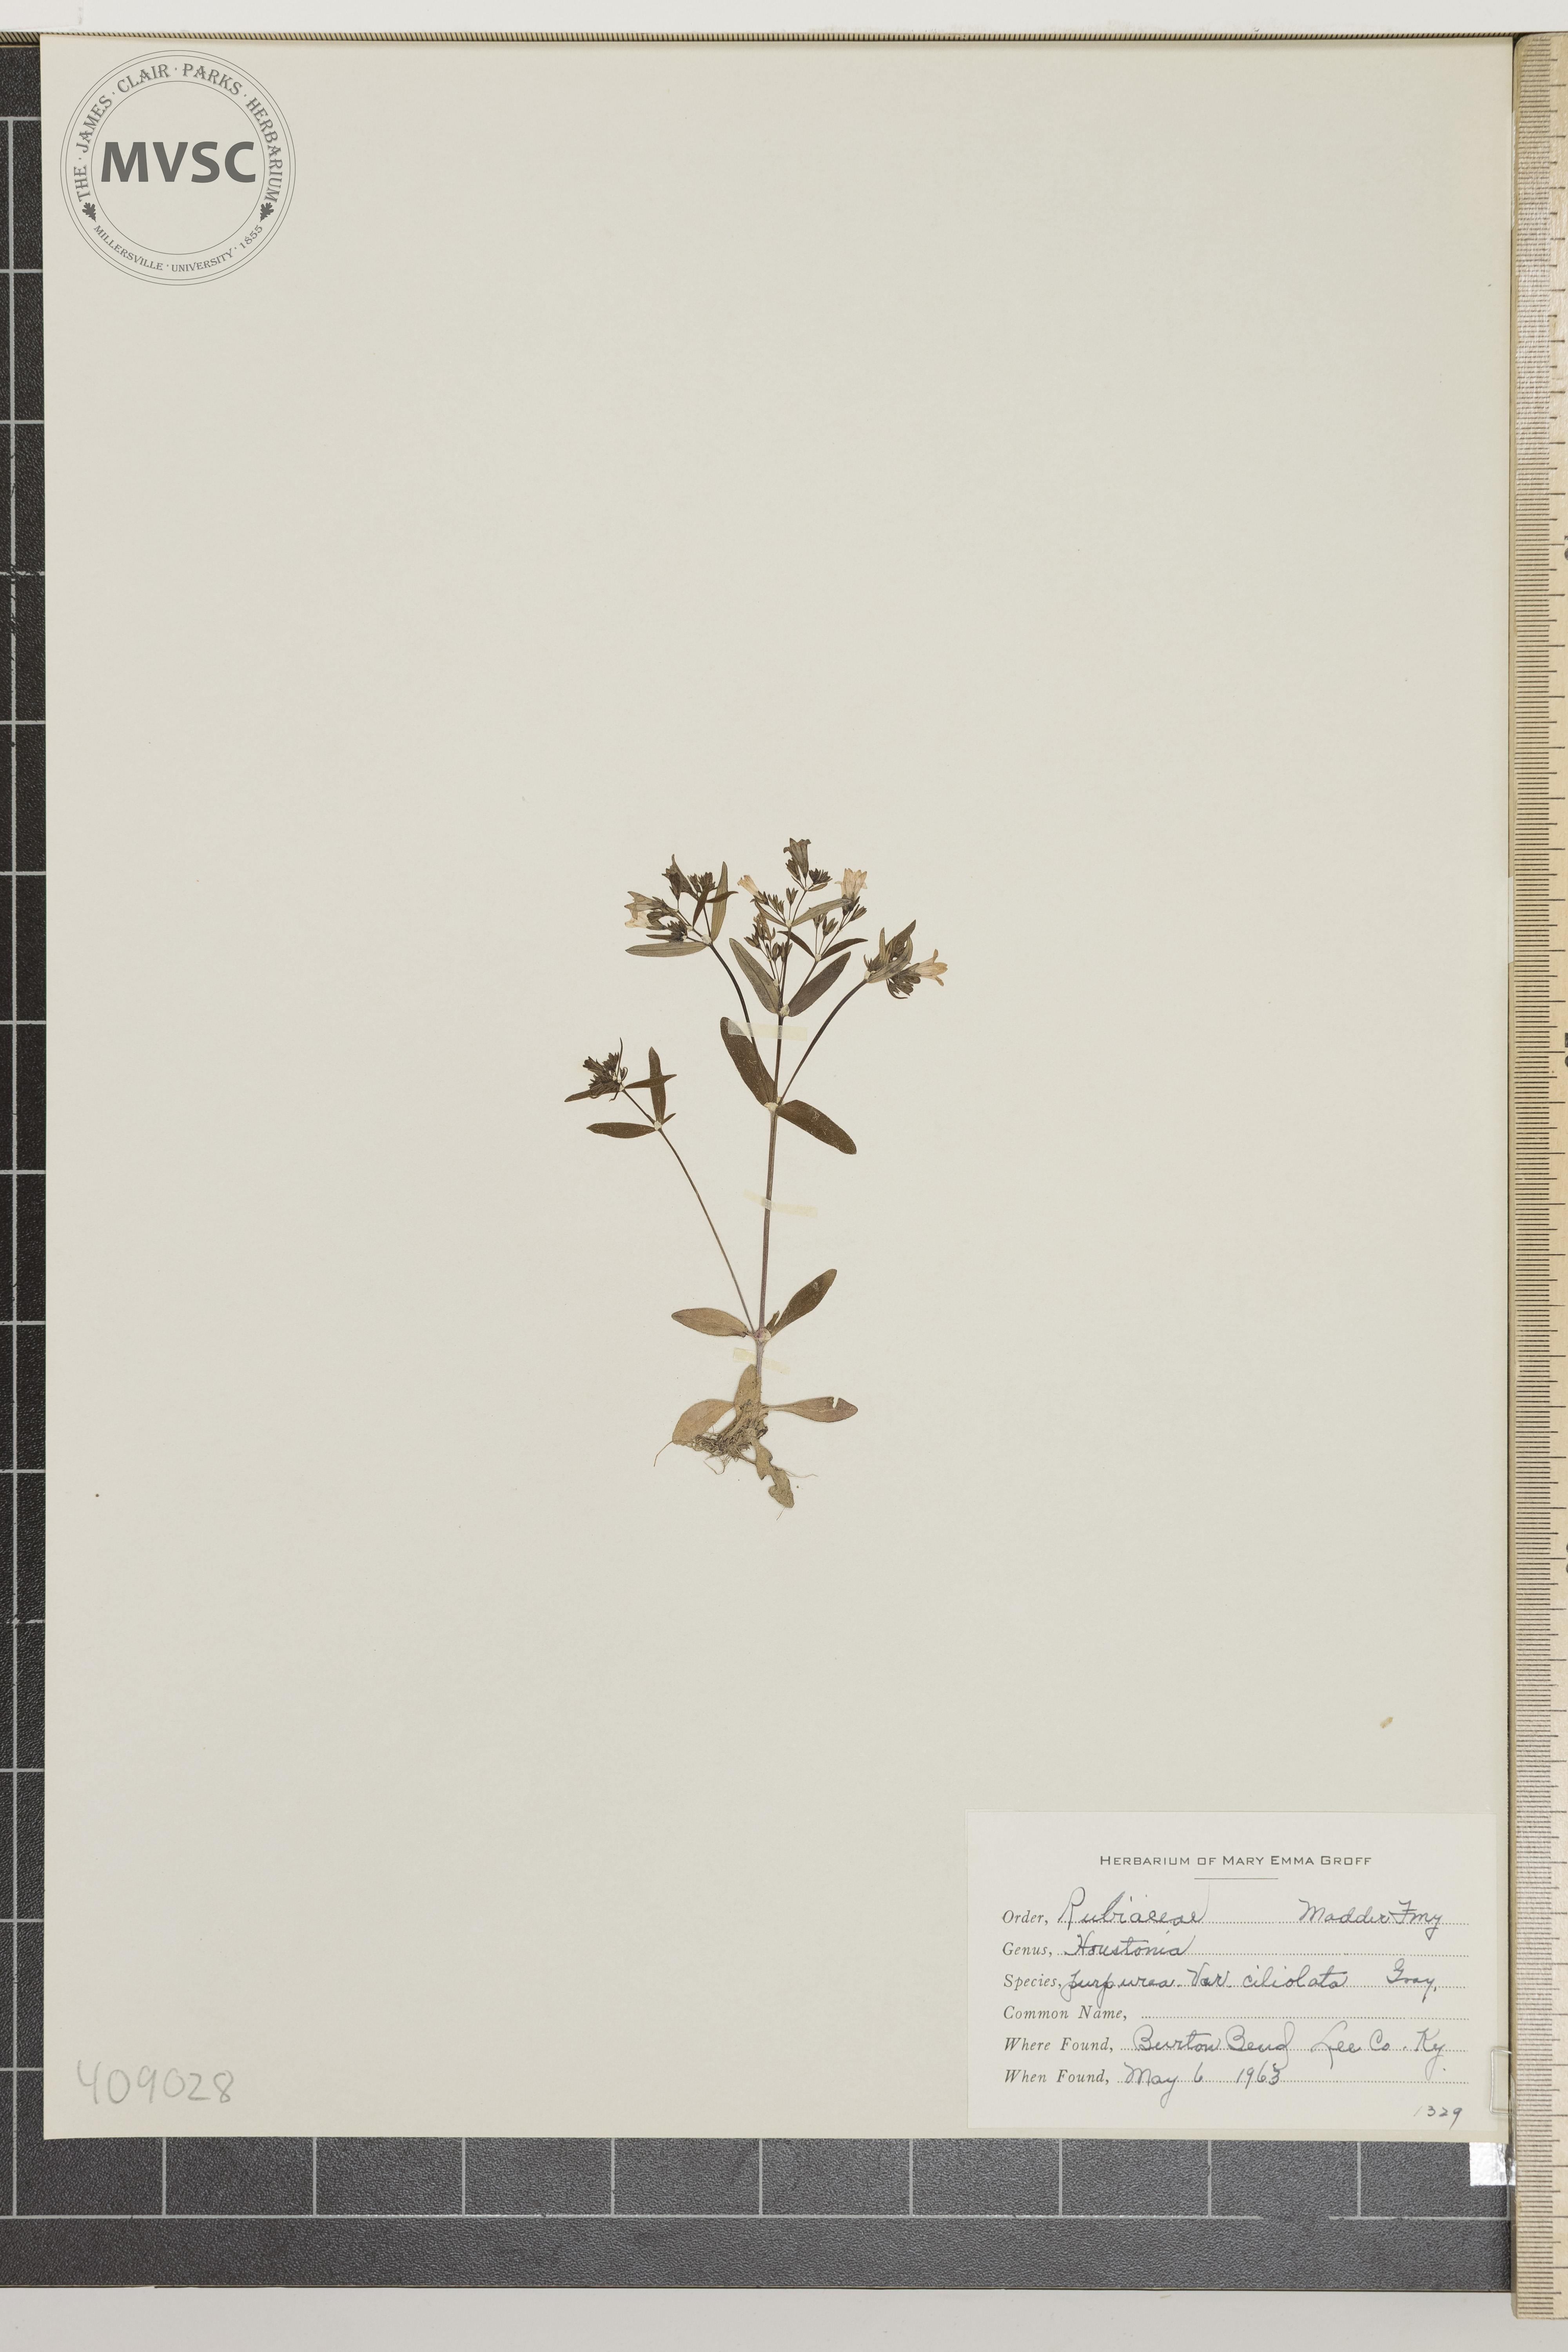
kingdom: Plantae
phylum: Tracheophyta
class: Magnoliopsida
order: Gentianales
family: Rubiaceae
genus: Houstonia
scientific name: Houstonia purpurea
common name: Summer bluet
